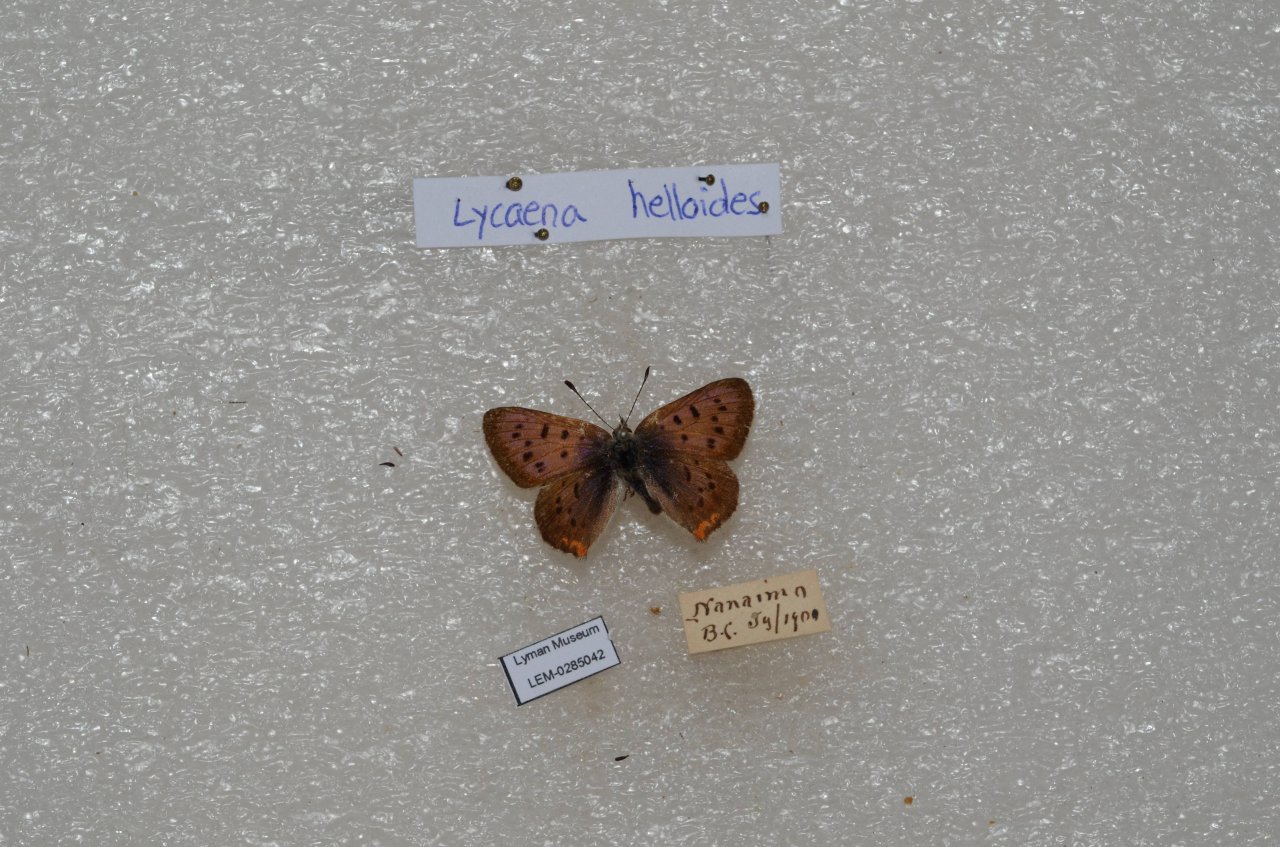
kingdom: Animalia
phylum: Arthropoda
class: Insecta
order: Lepidoptera
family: Sesiidae
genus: Sesia
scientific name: Sesia Lycaena helloides
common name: Purplish Copper
